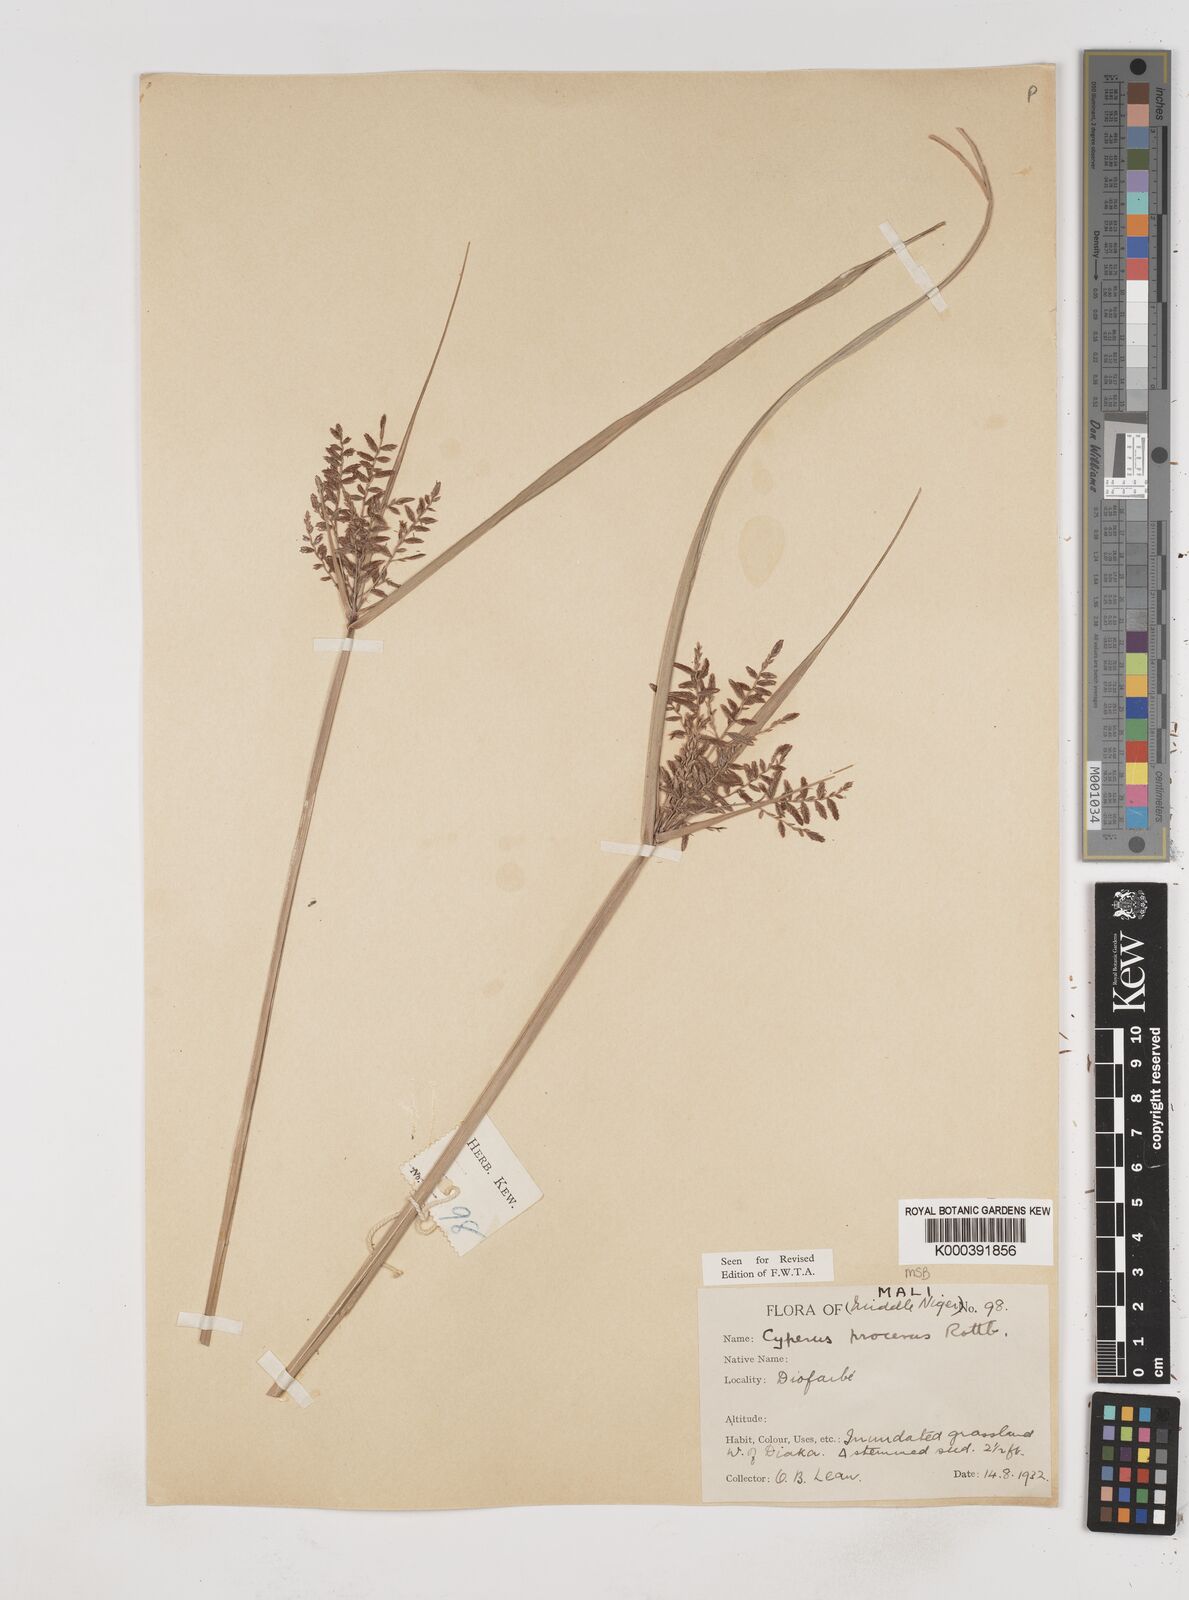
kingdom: Plantae
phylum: Tracheophyta
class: Liliopsida
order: Poales
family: Cyperaceae
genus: Cyperus
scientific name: Cyperus procerus
